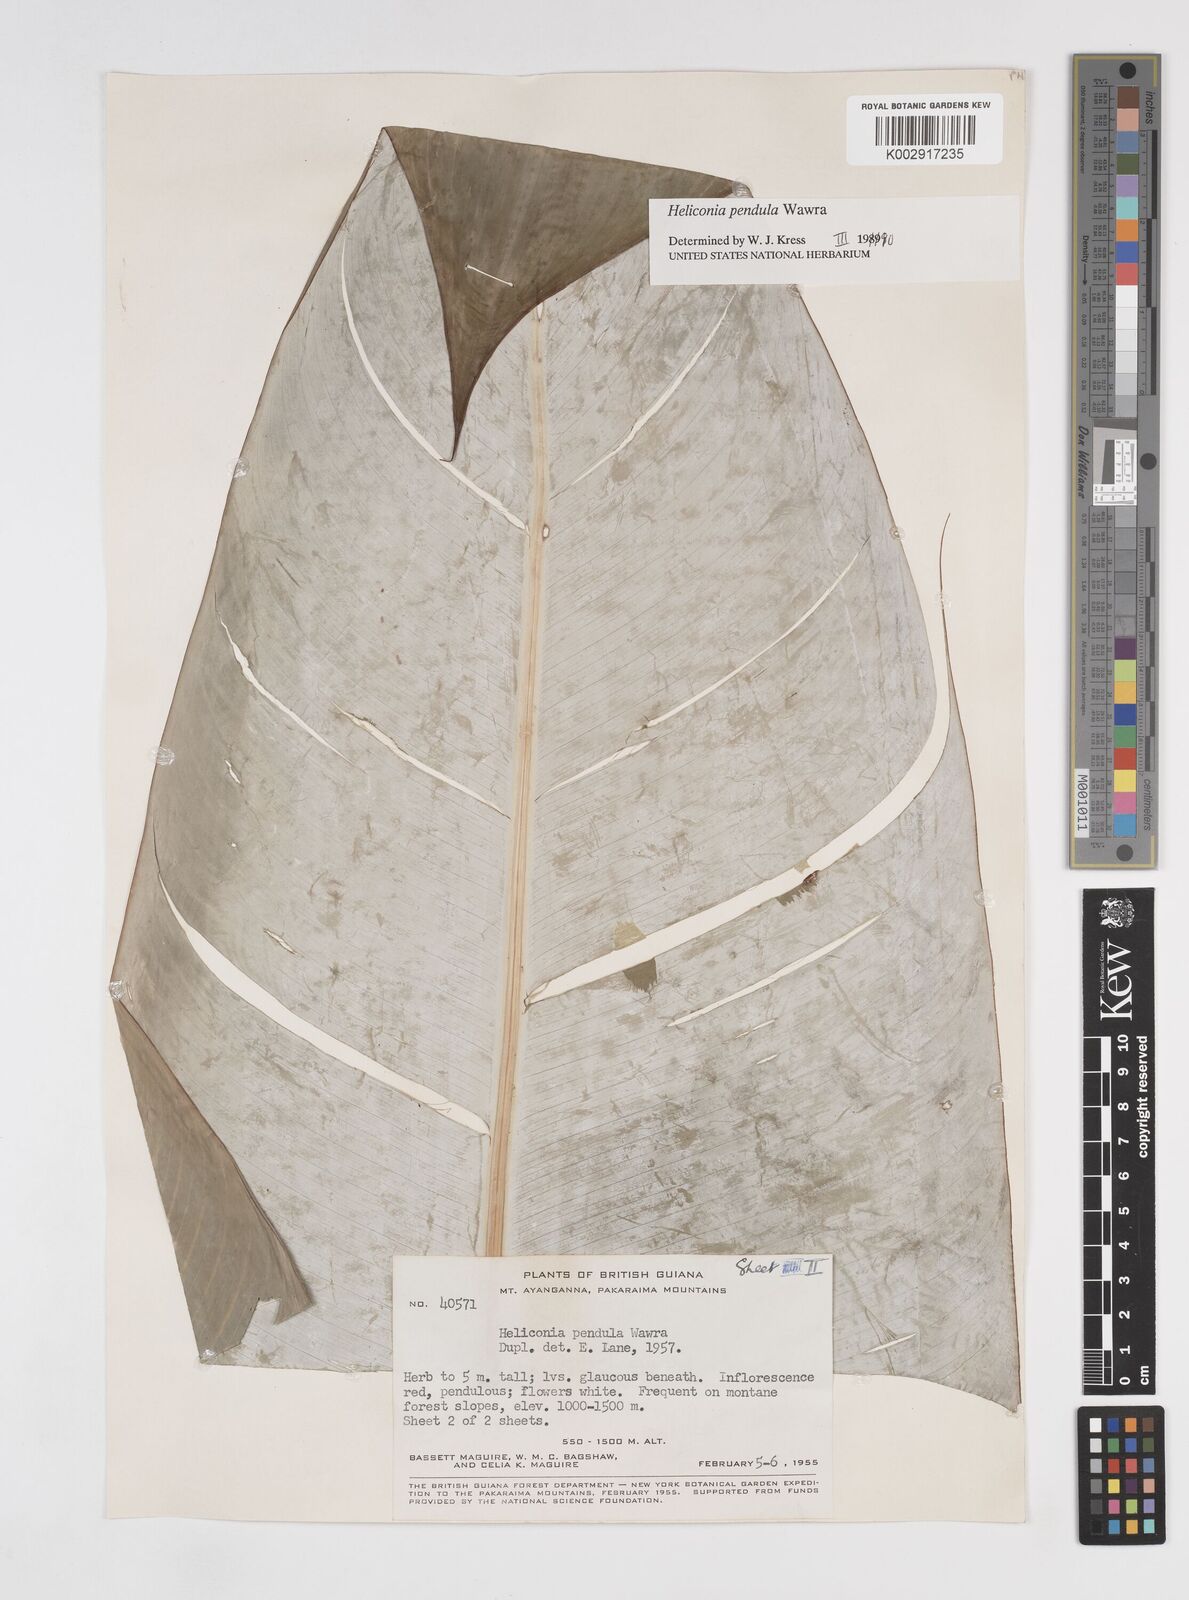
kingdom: Plantae
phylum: Tracheophyta
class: Liliopsida
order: Zingiberales
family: Heliconiaceae
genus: Heliconia
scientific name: Heliconia pendula
